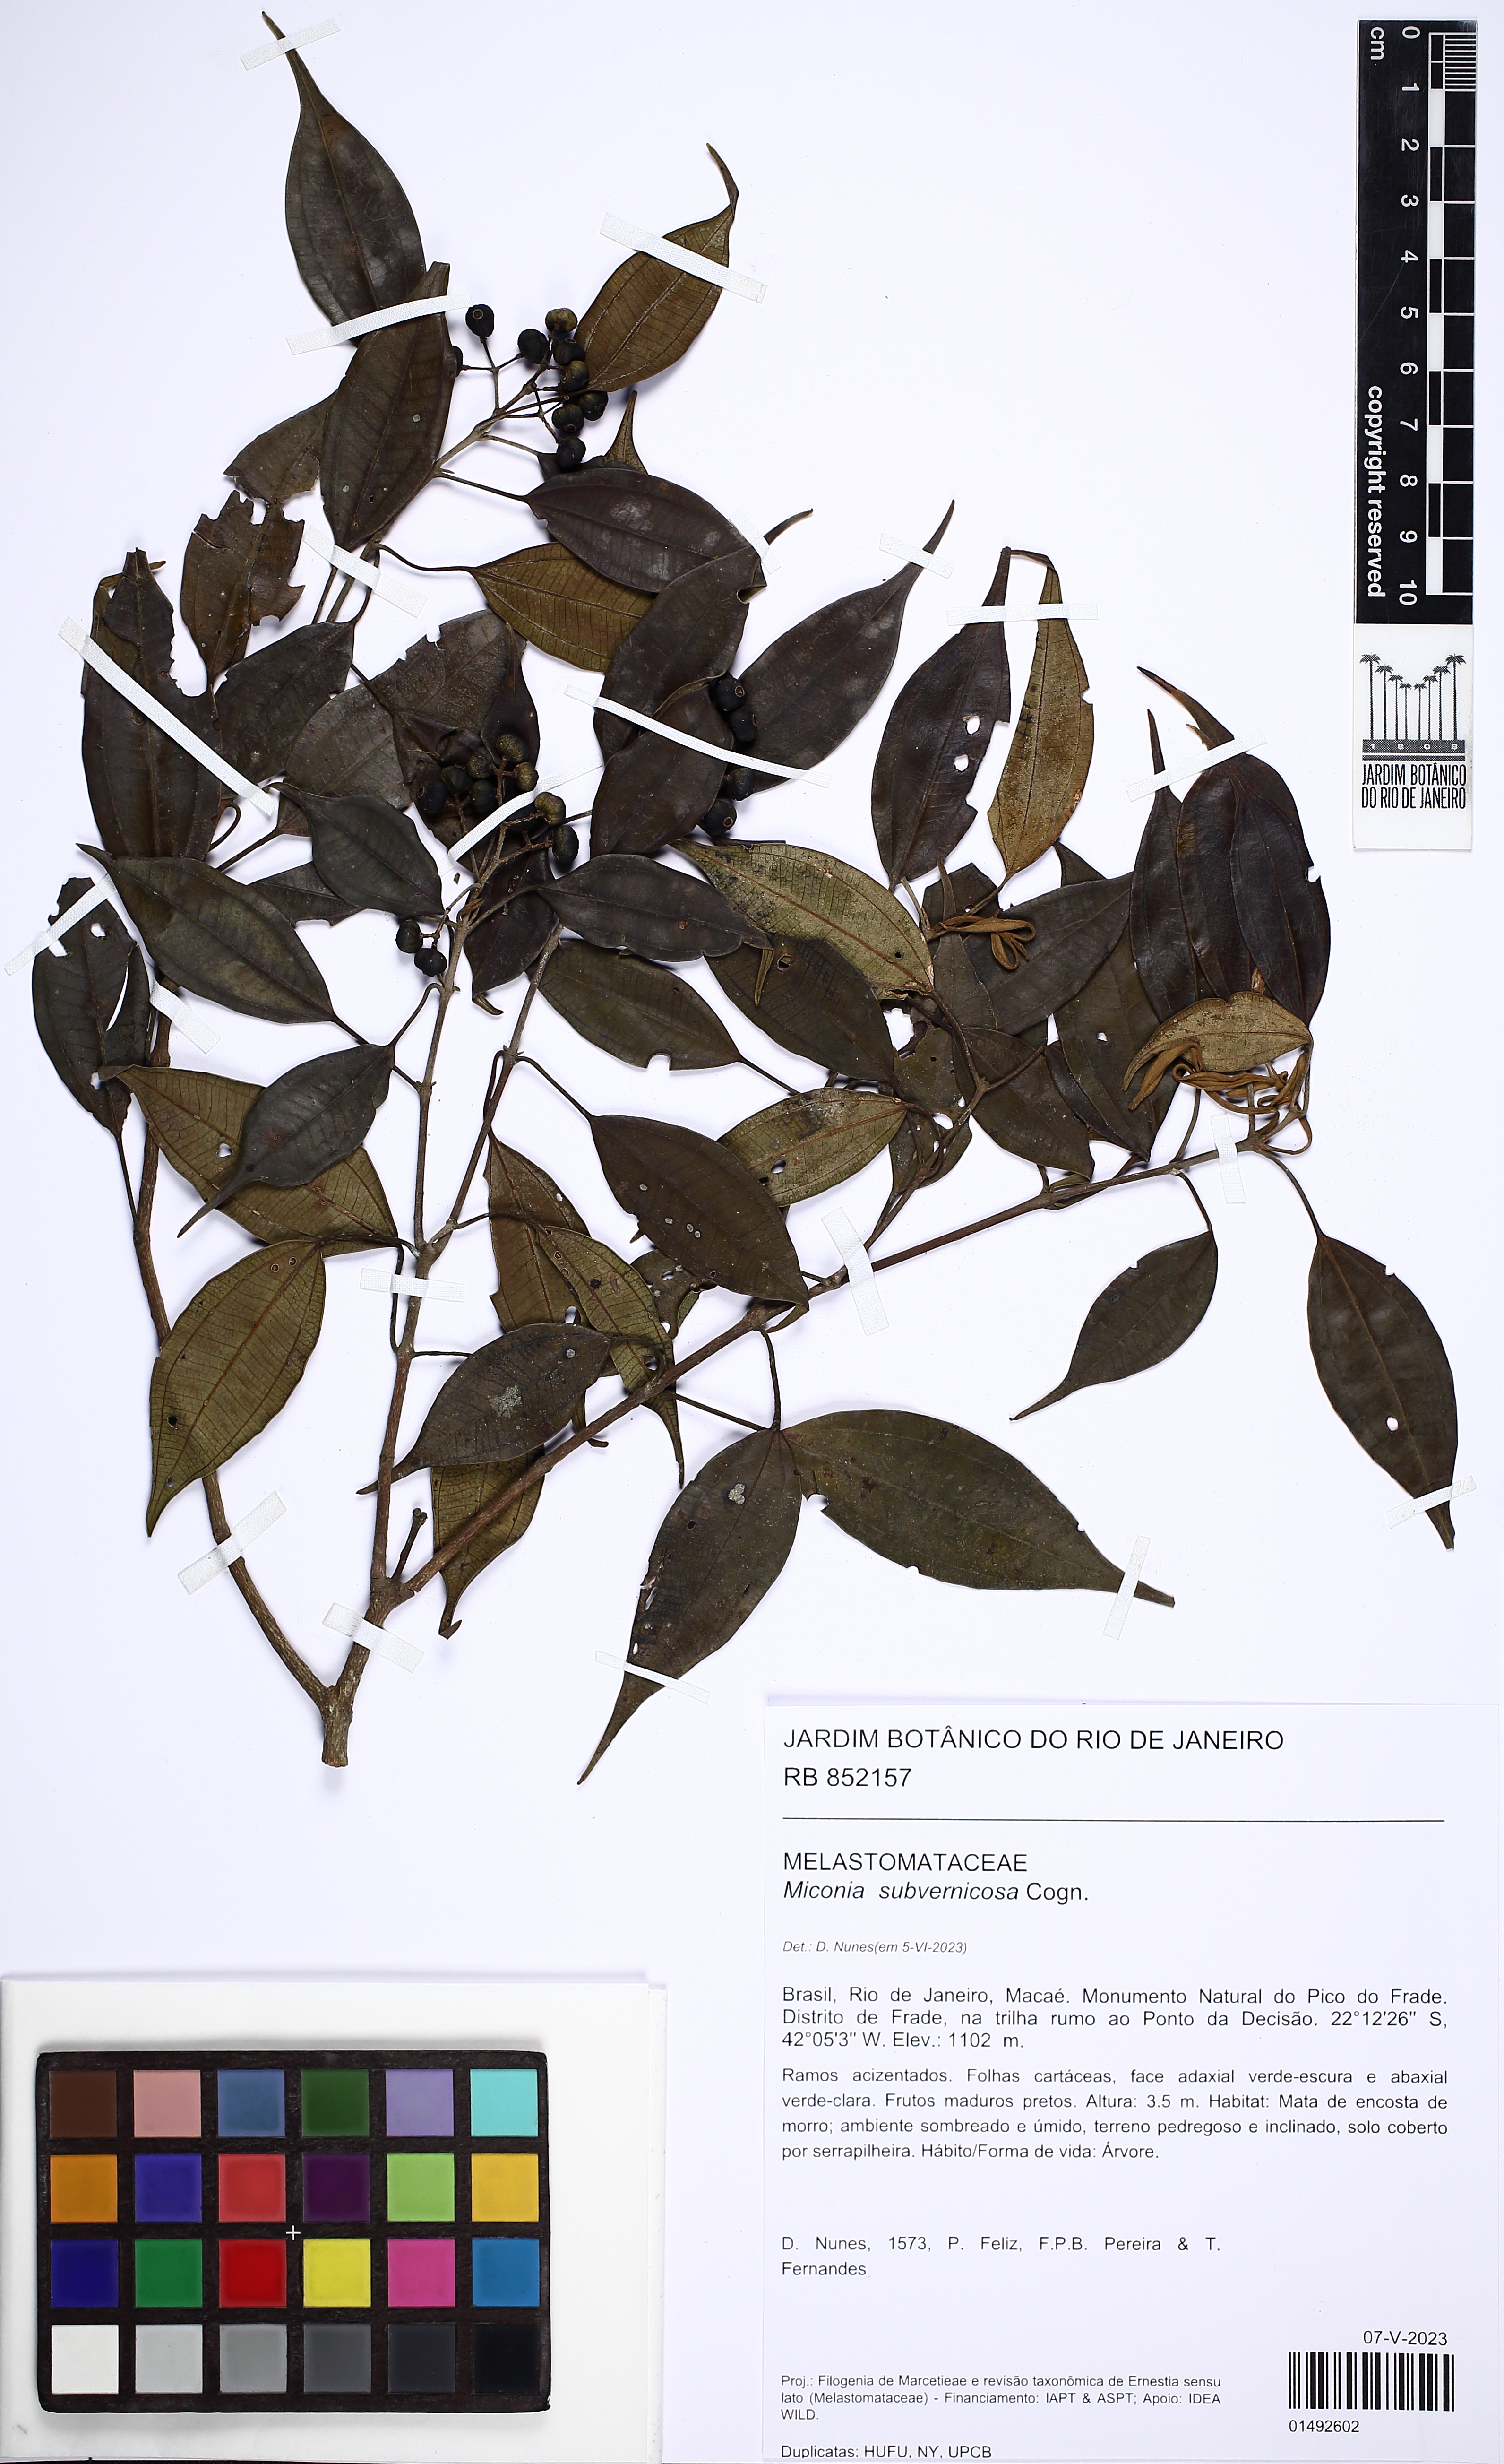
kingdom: Plantae
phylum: Tracheophyta
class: Magnoliopsida
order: Myrtales
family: Melastomataceae
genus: Miconia
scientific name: Miconia subvernicosa
